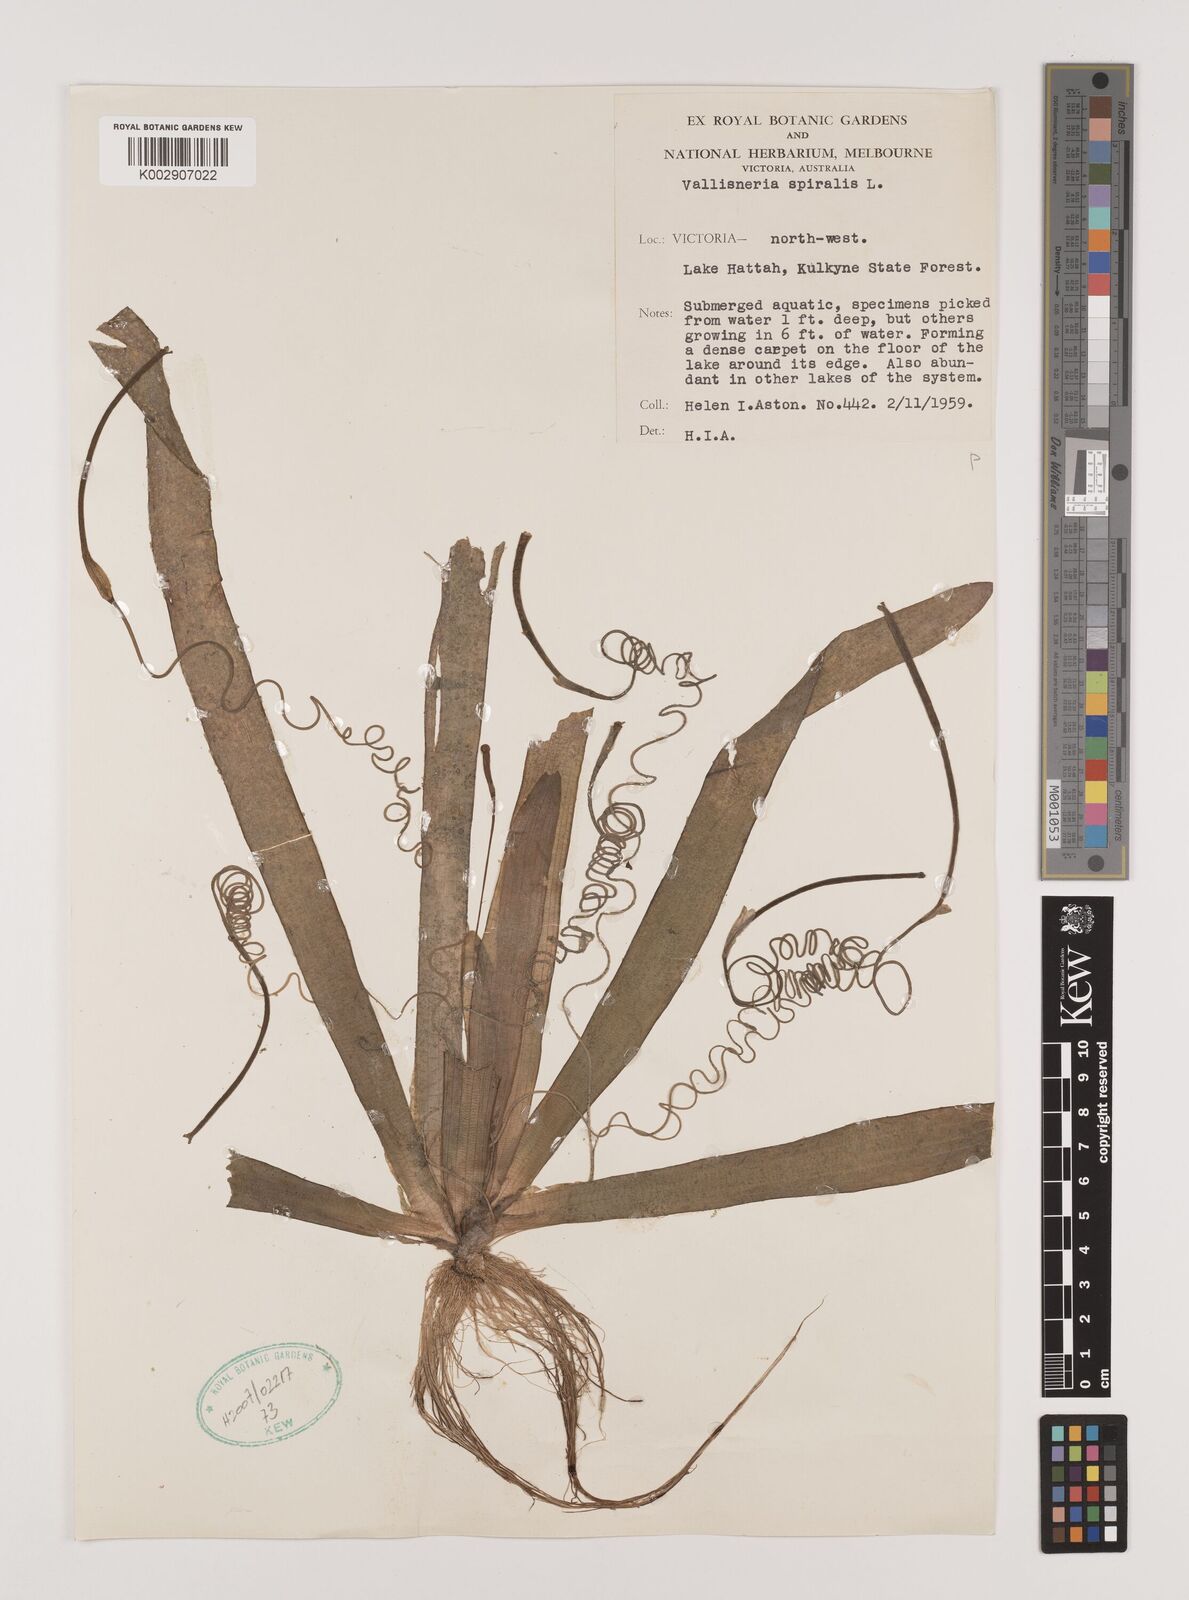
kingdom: Plantae
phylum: Tracheophyta
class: Liliopsida
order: Alismatales
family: Hydrocharitaceae
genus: Vallisneria
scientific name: Vallisneria spiralis
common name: Tapegrass
